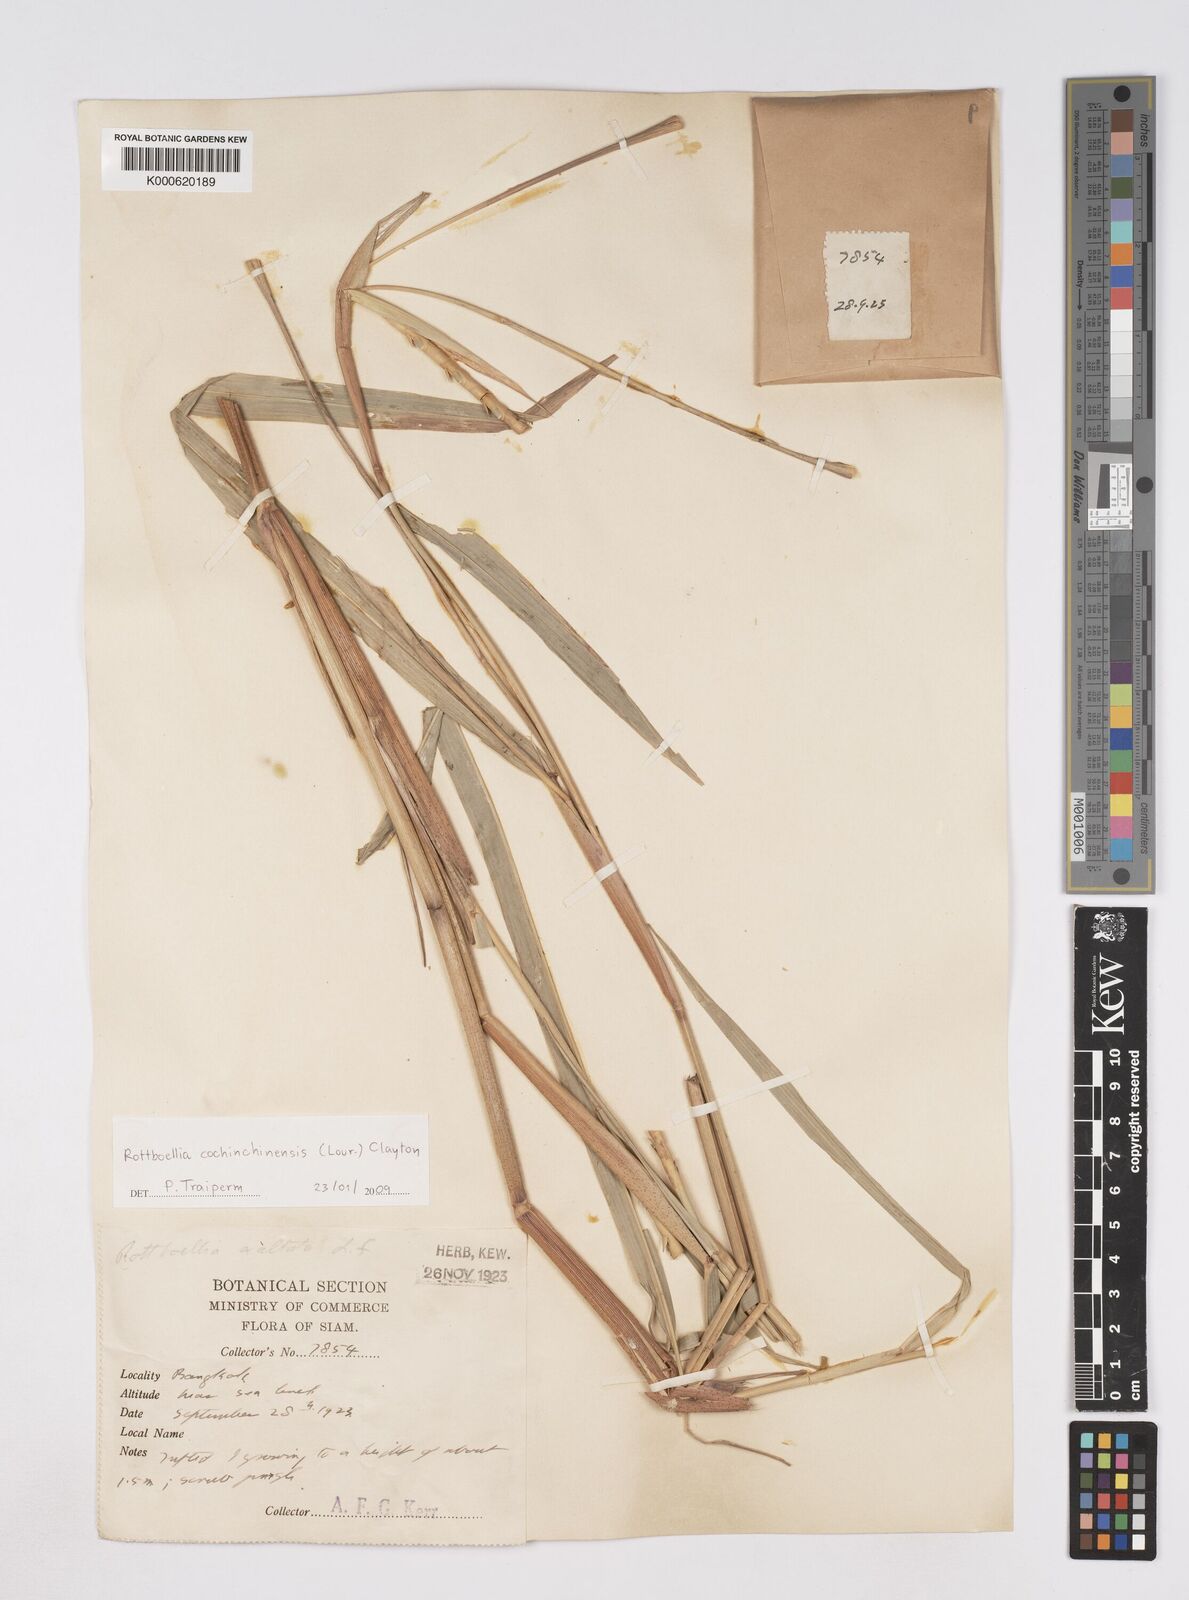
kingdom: Plantae
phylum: Tracheophyta
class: Liliopsida
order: Poales
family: Poaceae
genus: Rottboellia
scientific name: Rottboellia cochinchinensis
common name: Itchgrass
